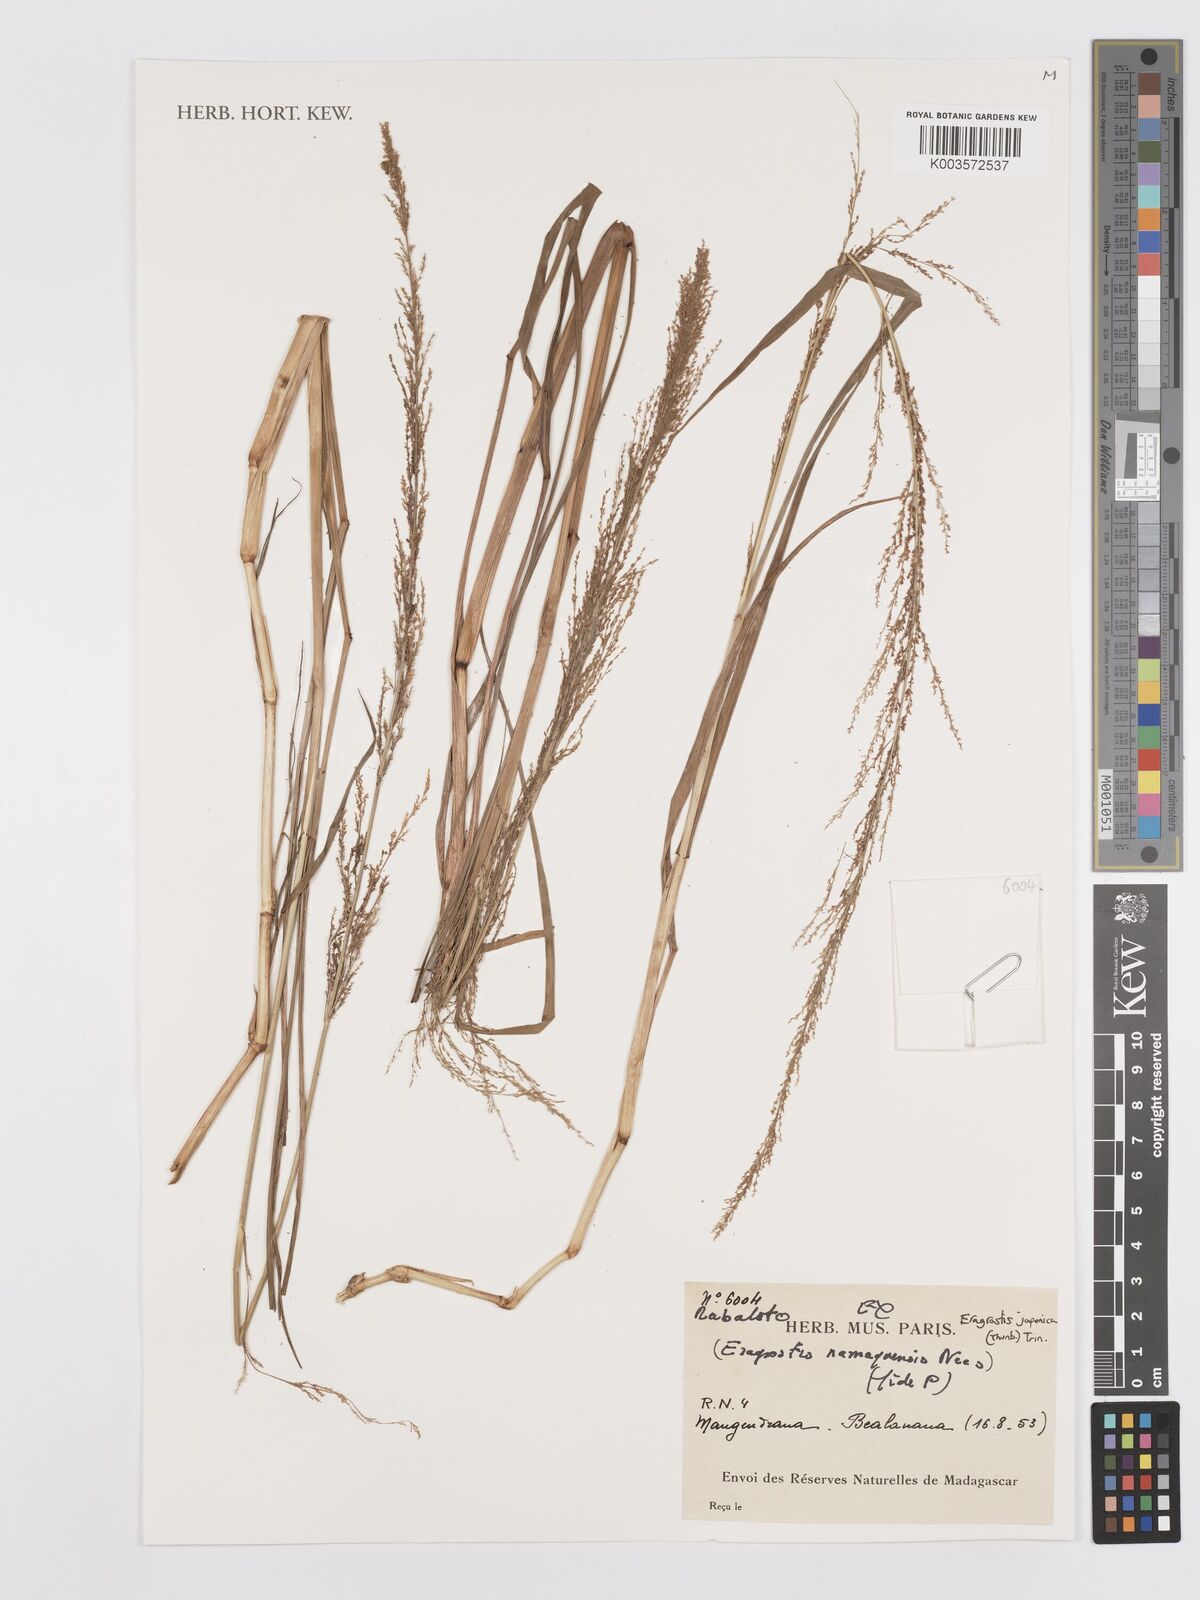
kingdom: Plantae
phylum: Tracheophyta
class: Liliopsida
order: Poales
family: Poaceae
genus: Eragrostis
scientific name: Eragrostis japonica
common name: Pond lovegrass
